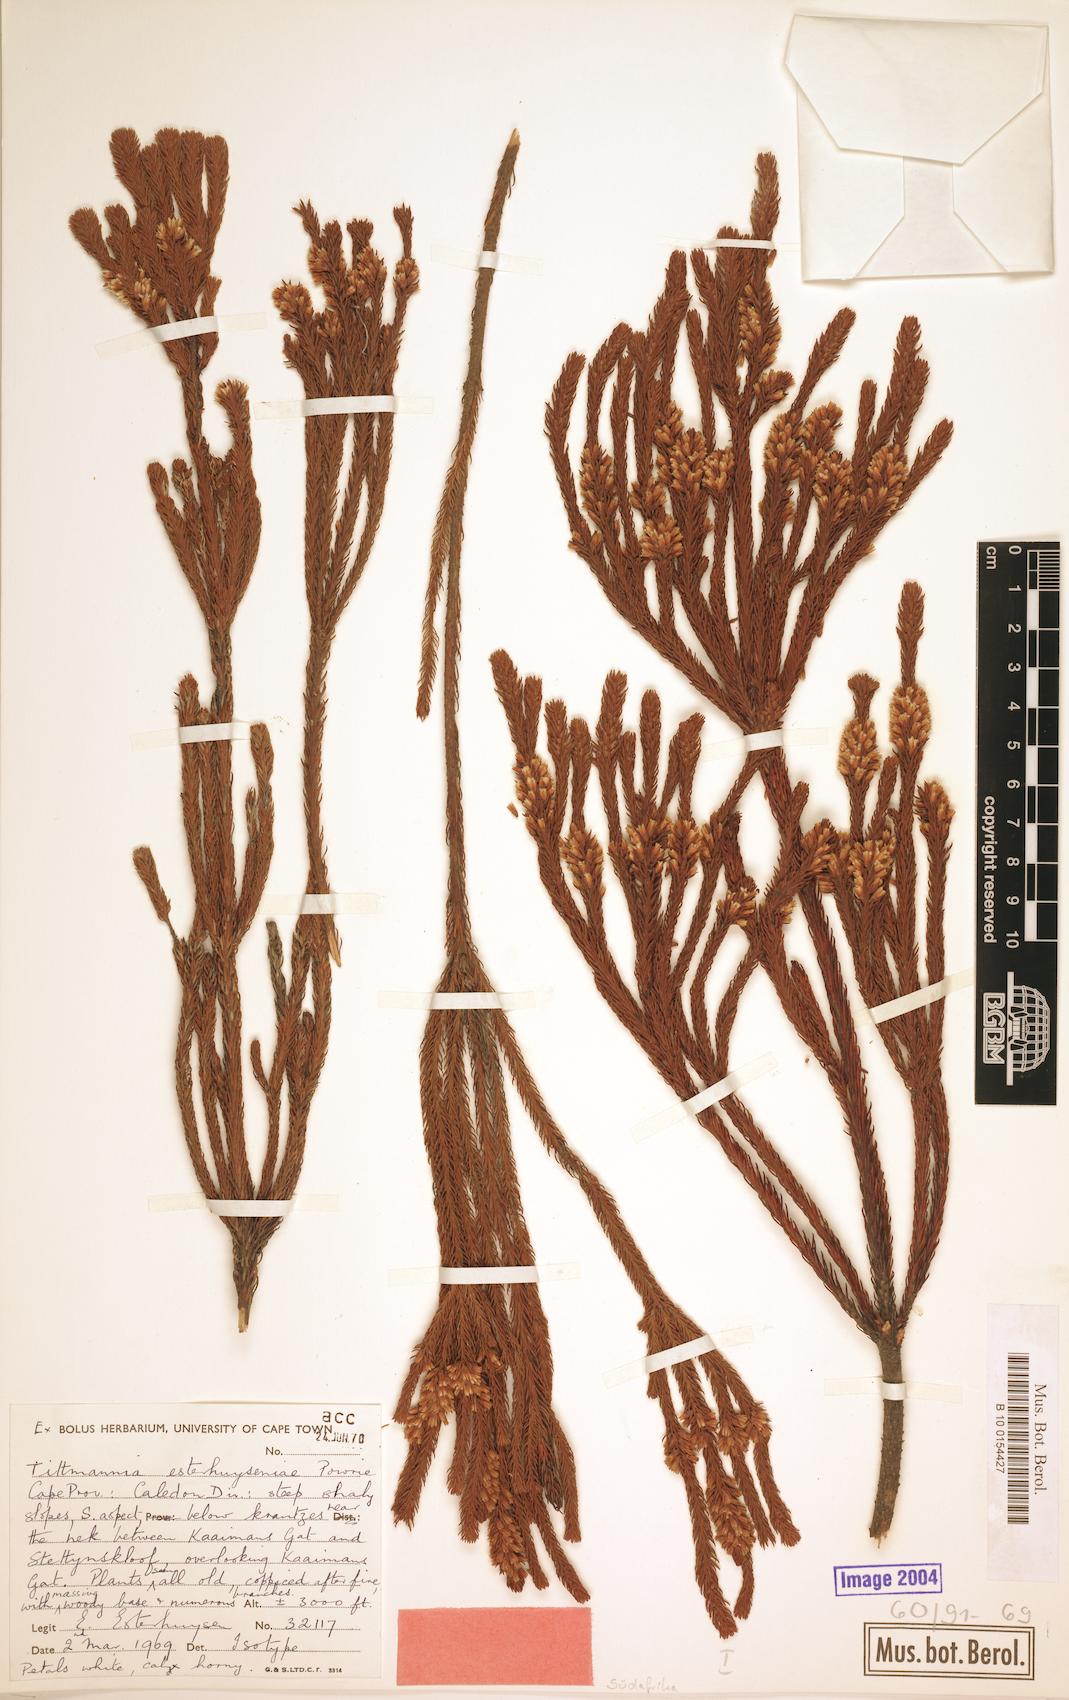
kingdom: Plantae
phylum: Tracheophyta
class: Magnoliopsida
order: Bruniales
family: Bruniaceae
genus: Audouinia
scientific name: Audouinia esterhuyseniae
